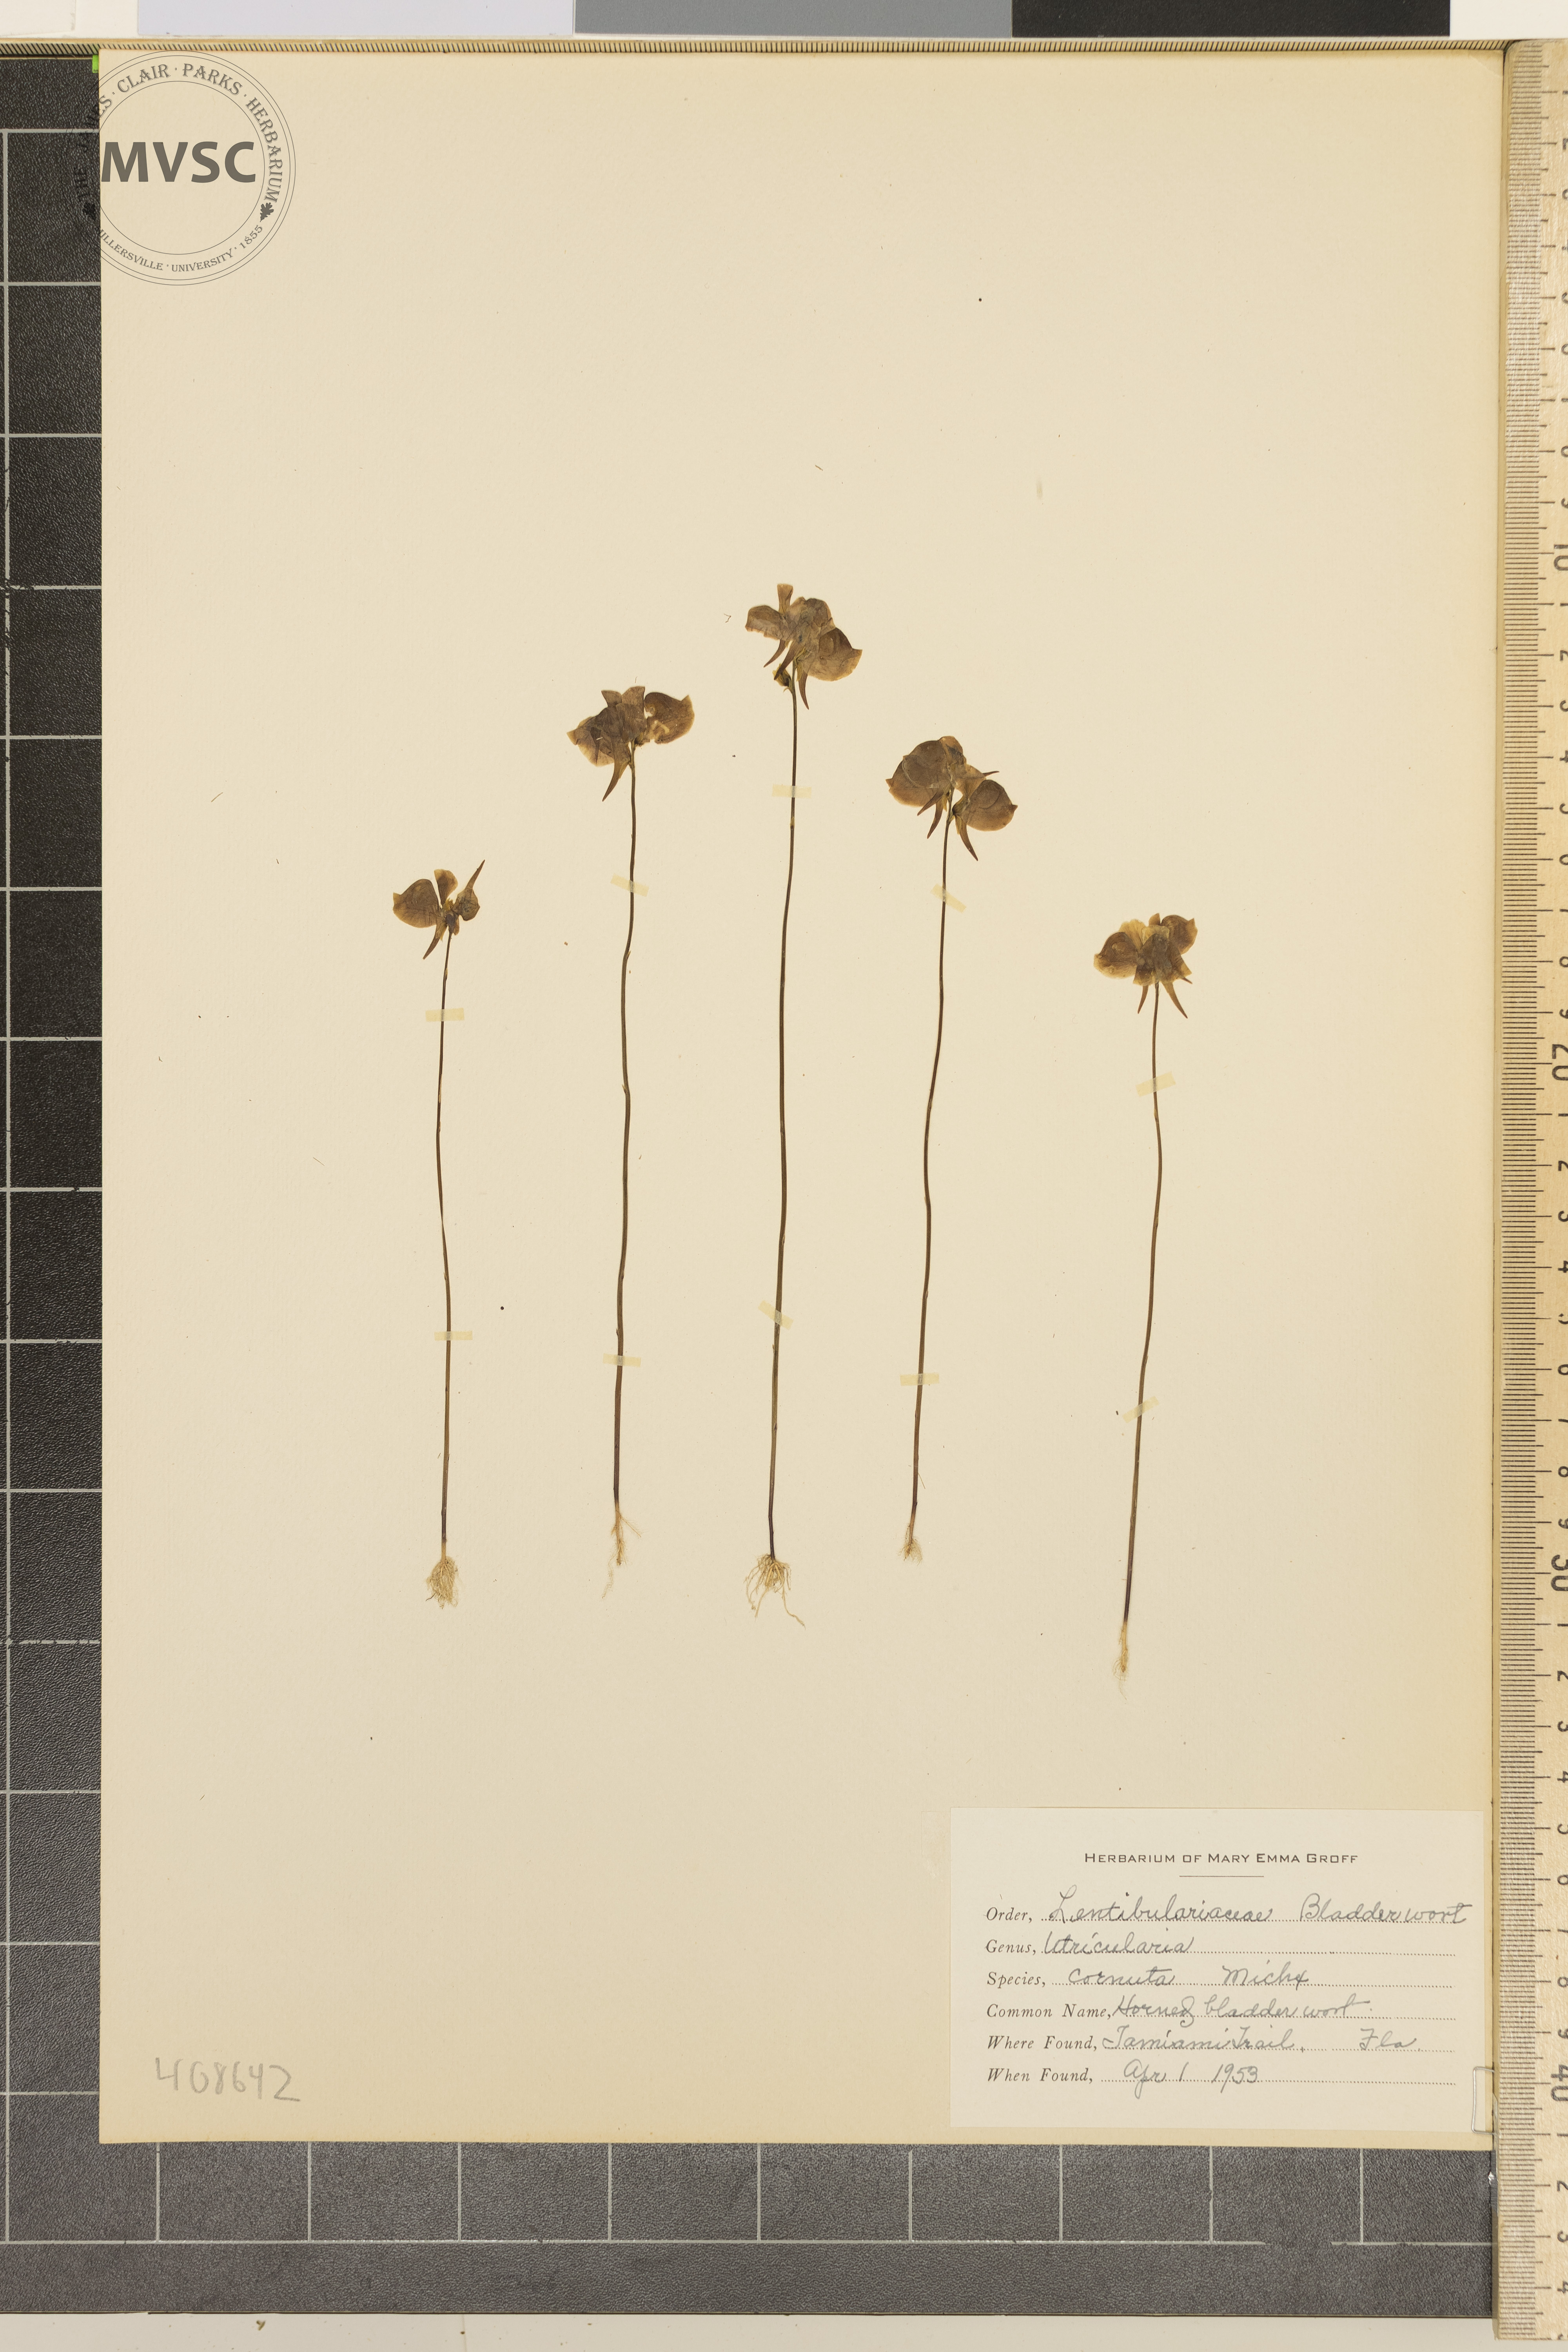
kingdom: Plantae
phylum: Tracheophyta
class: Magnoliopsida
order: Lamiales
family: Lentibulariaceae
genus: Utricularia
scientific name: Utricularia cornuta
